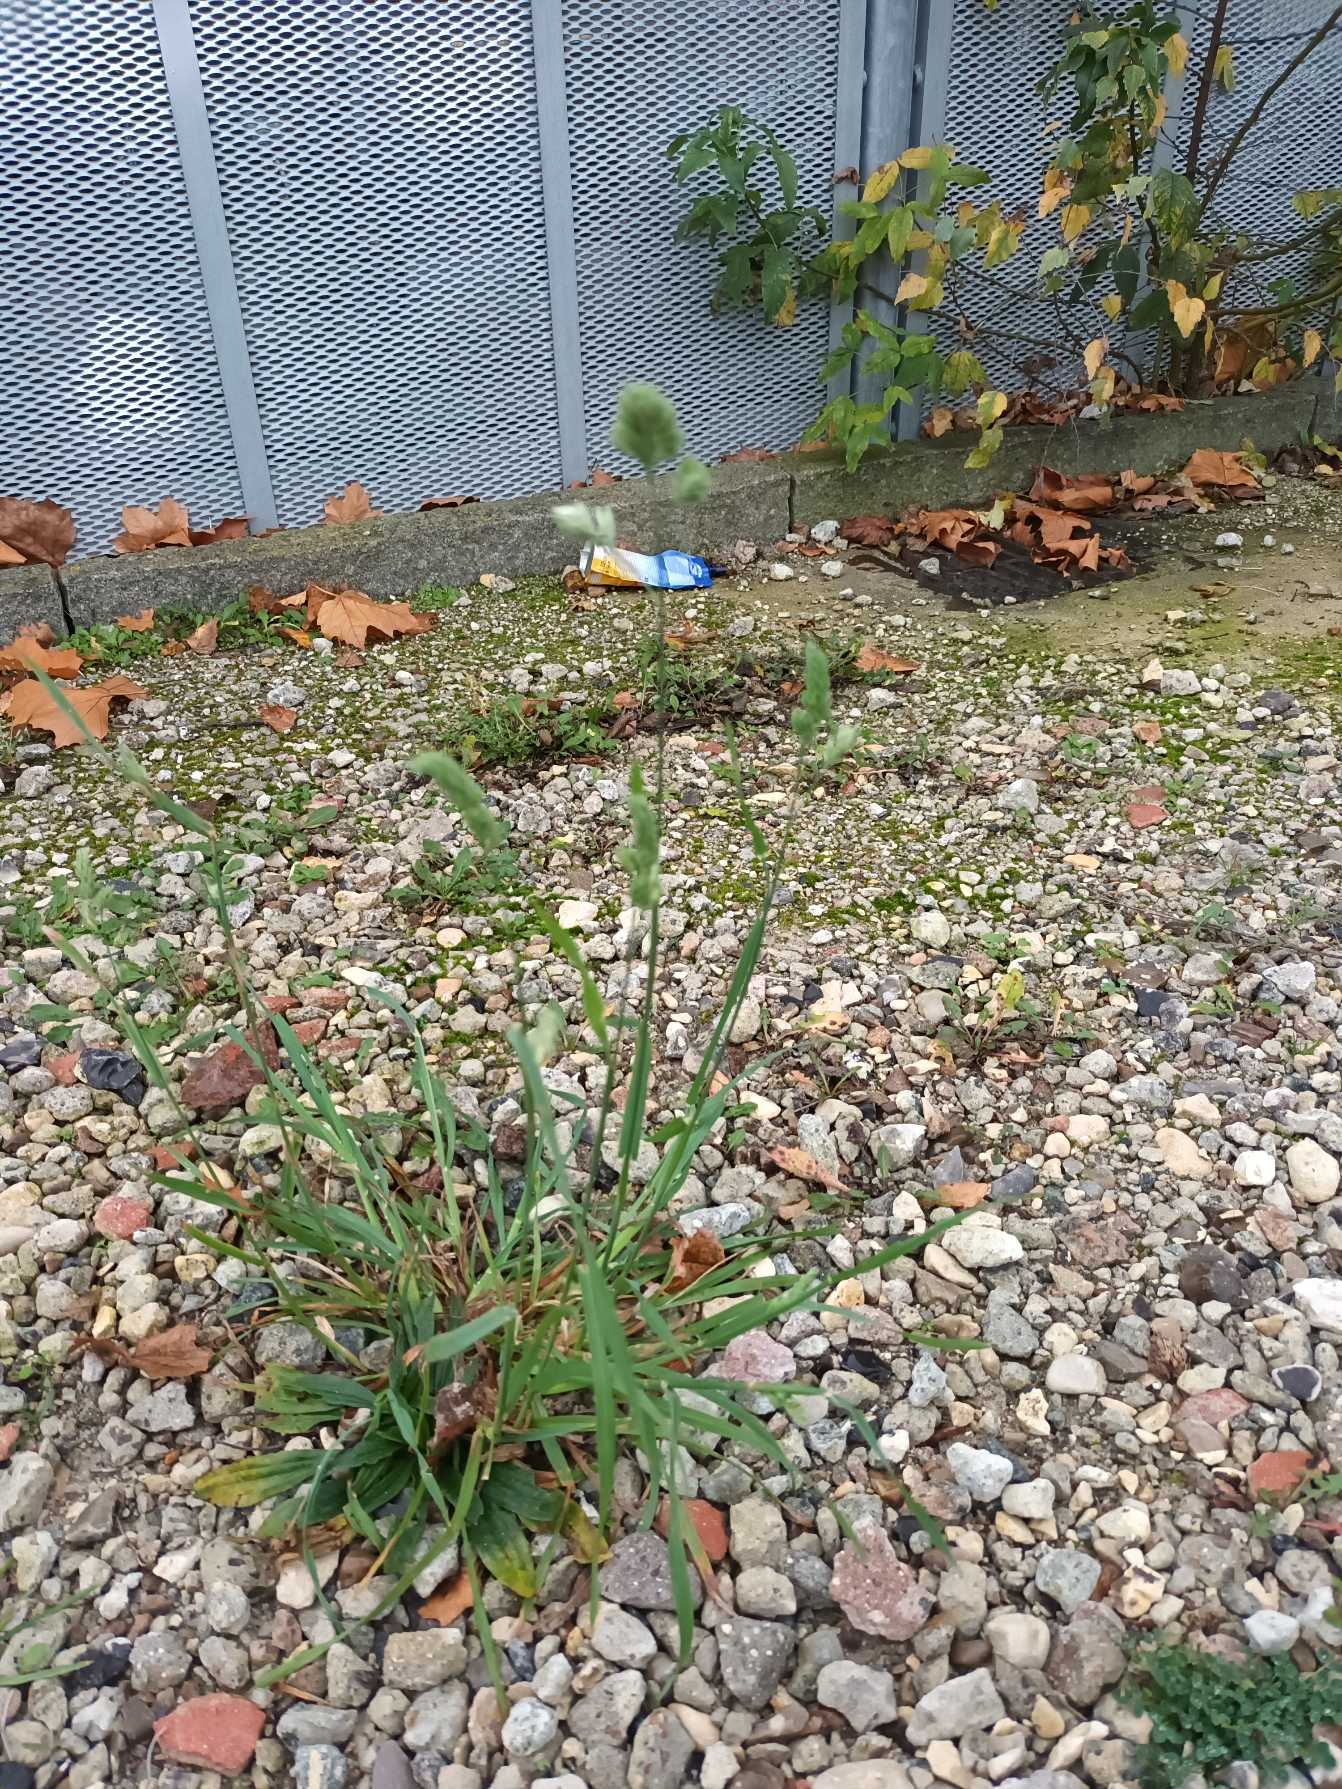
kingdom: Plantae
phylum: Tracheophyta
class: Liliopsida
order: Poales
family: Poaceae
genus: Dactylis
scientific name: Dactylis glomerata
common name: Almindelig hundegræs
